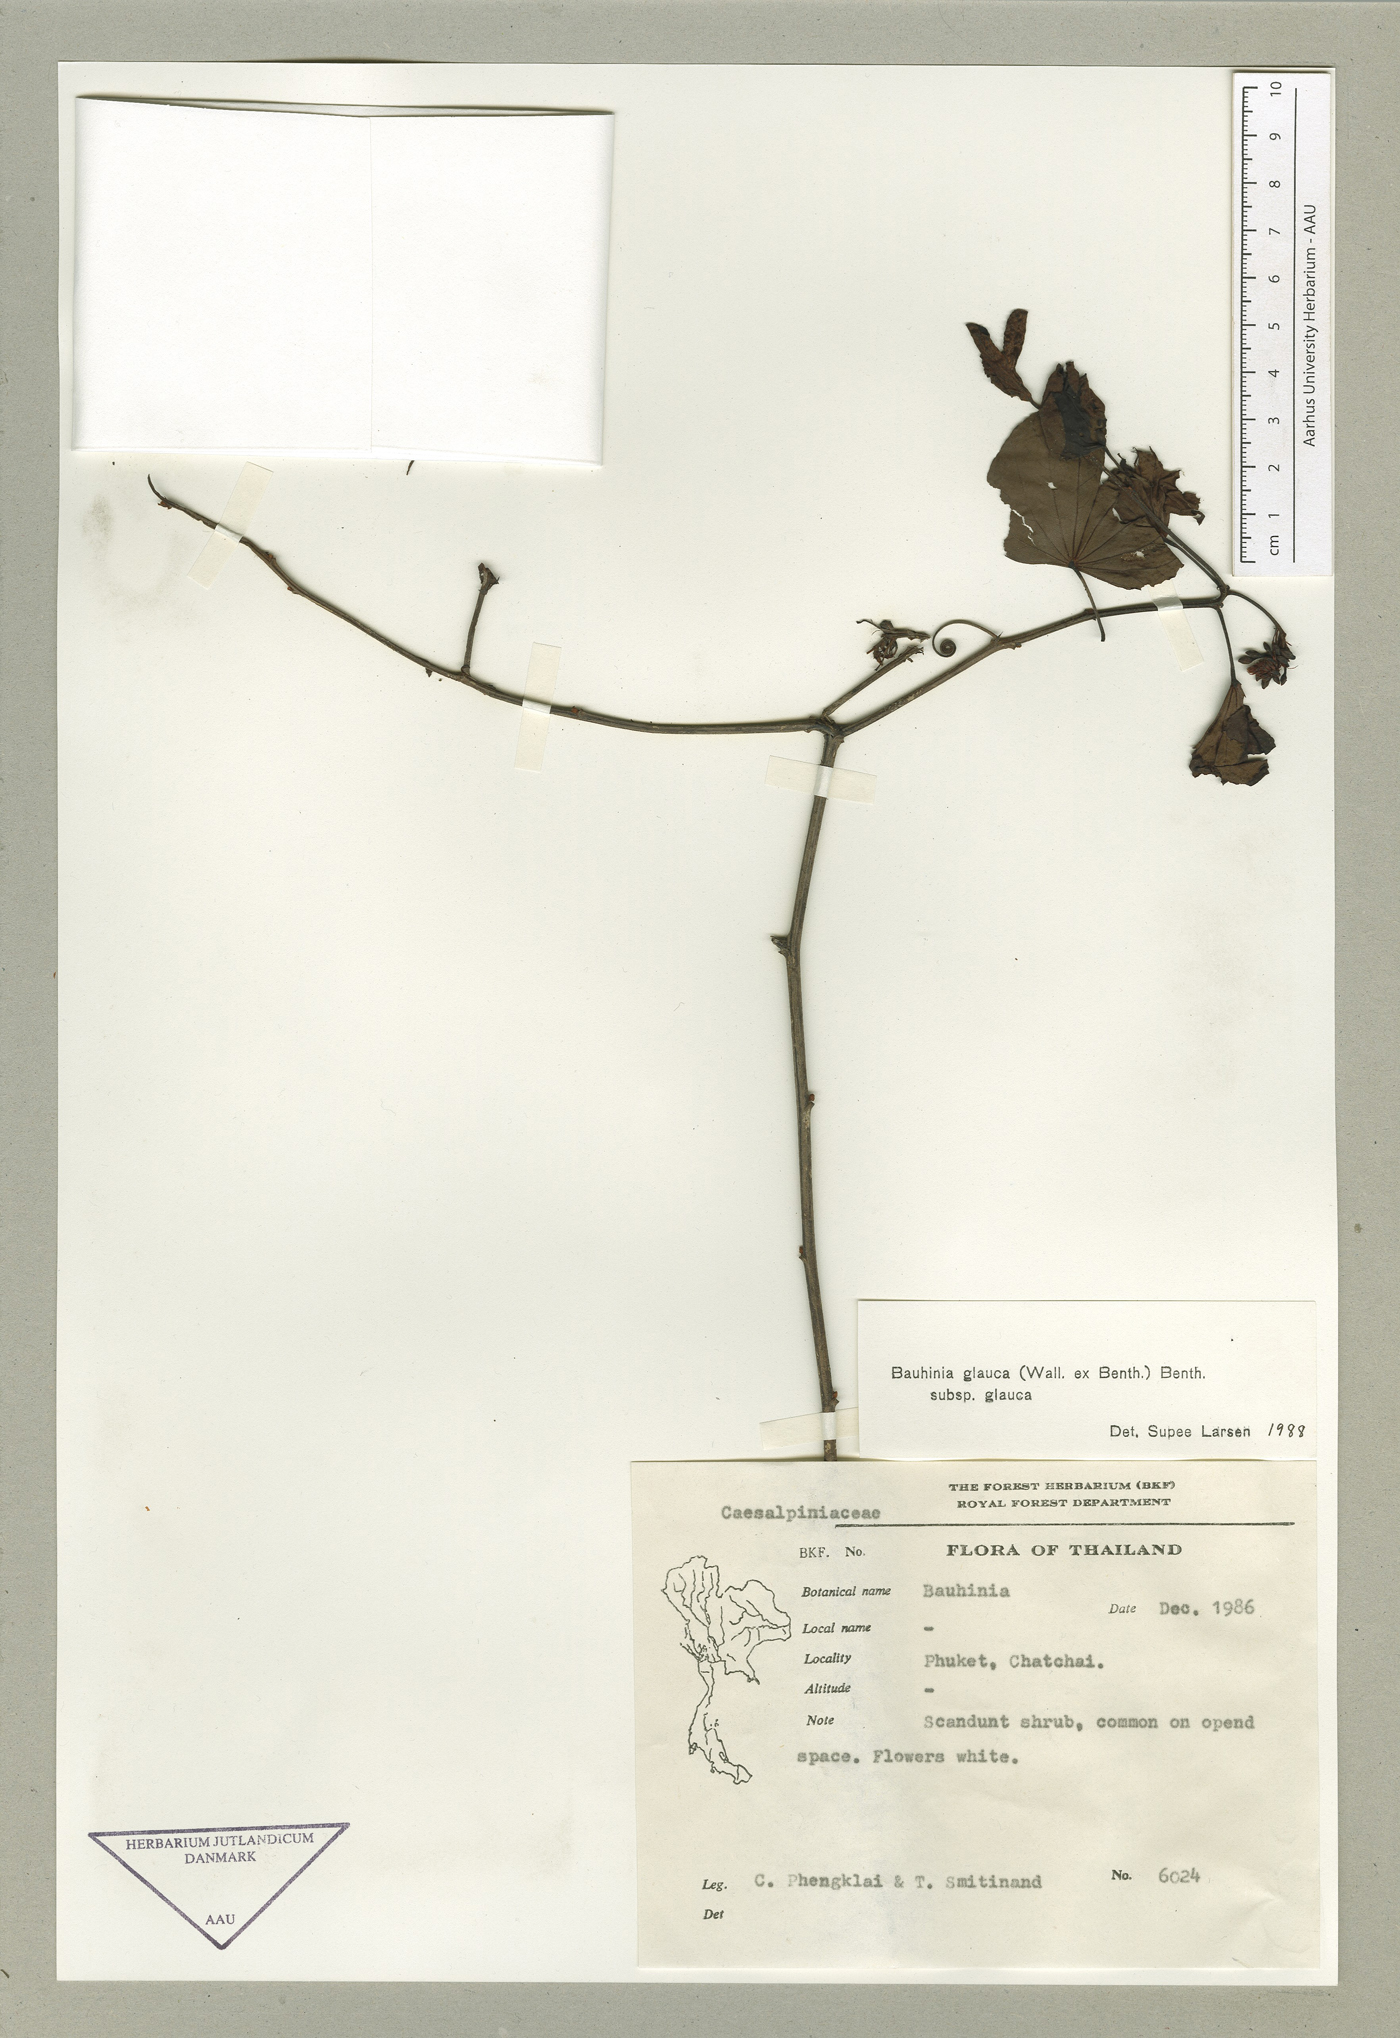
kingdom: Plantae
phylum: Tracheophyta
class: Magnoliopsida
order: Fabales
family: Fabaceae
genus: Cheniella
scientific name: Cheniella glauca
